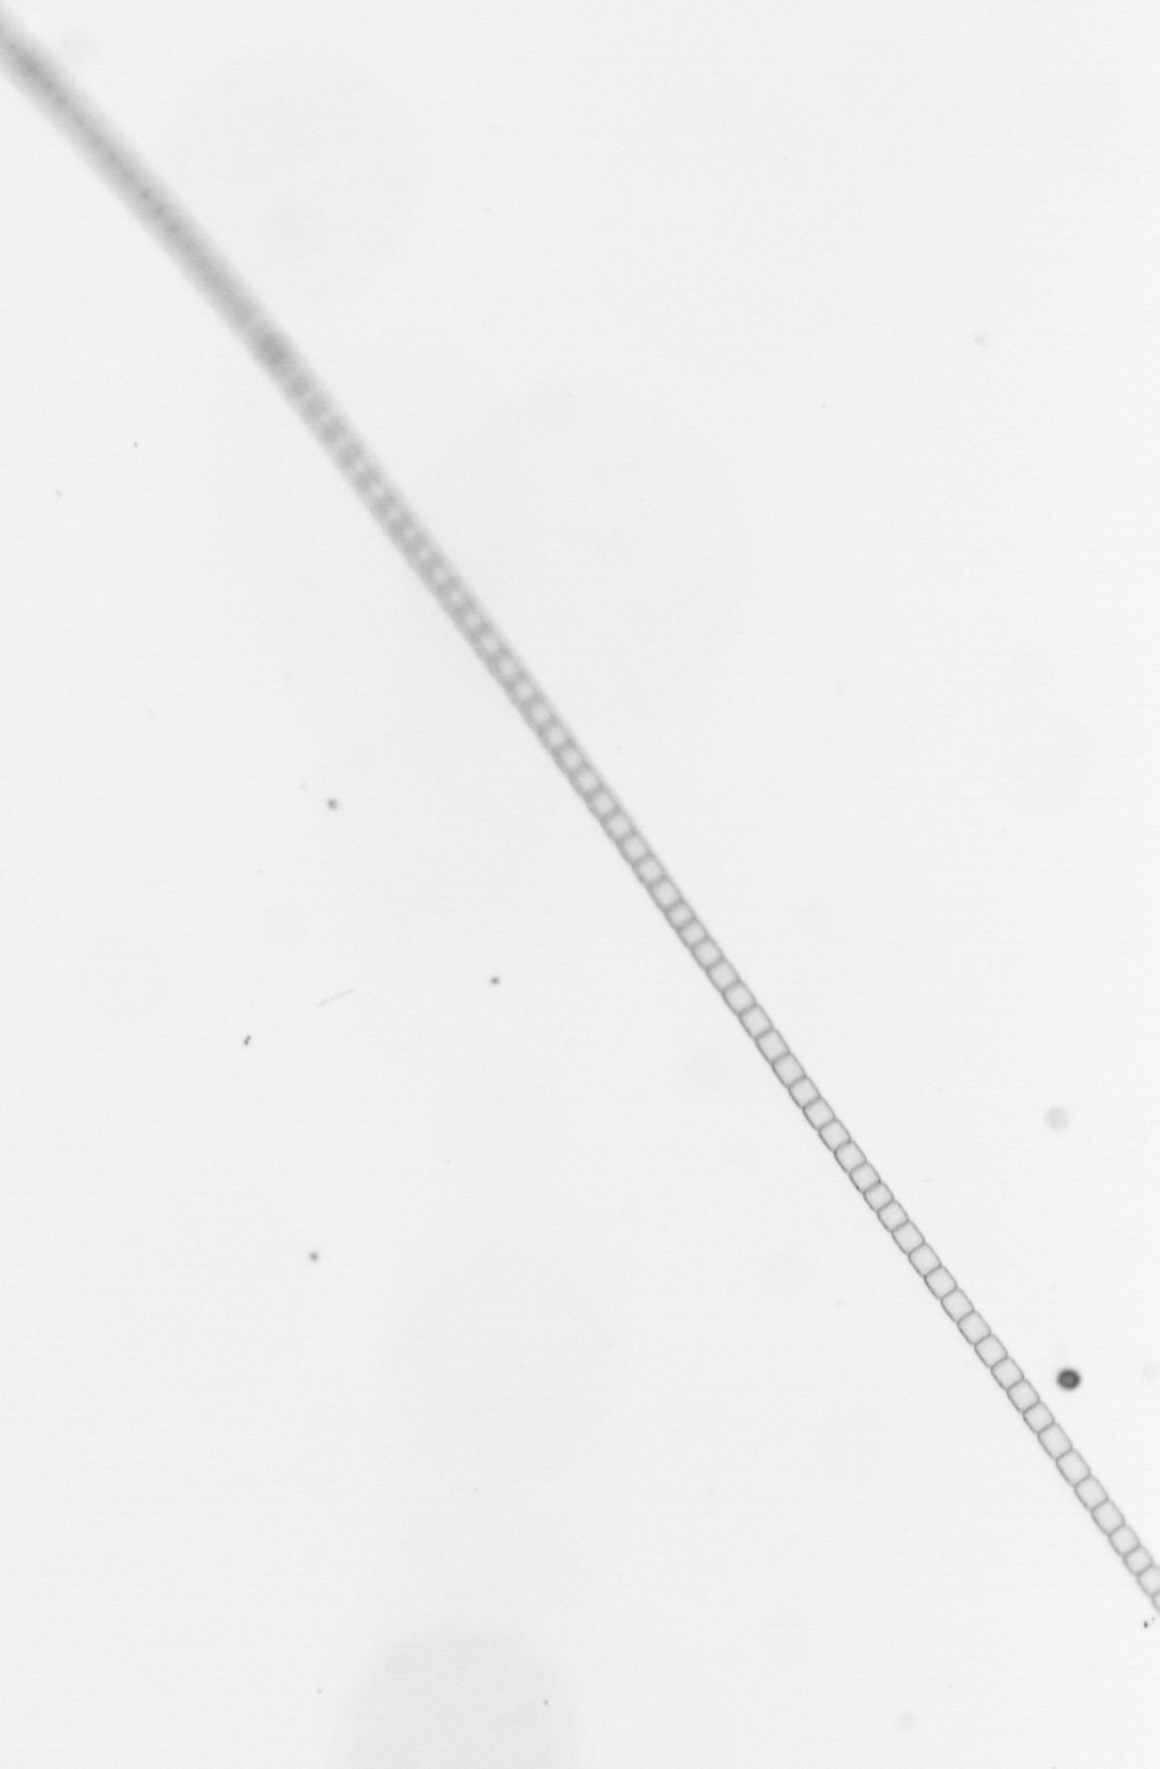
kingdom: Chromista
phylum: Ochrophyta
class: Bacillariophyceae
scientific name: Bacillariophyceae
